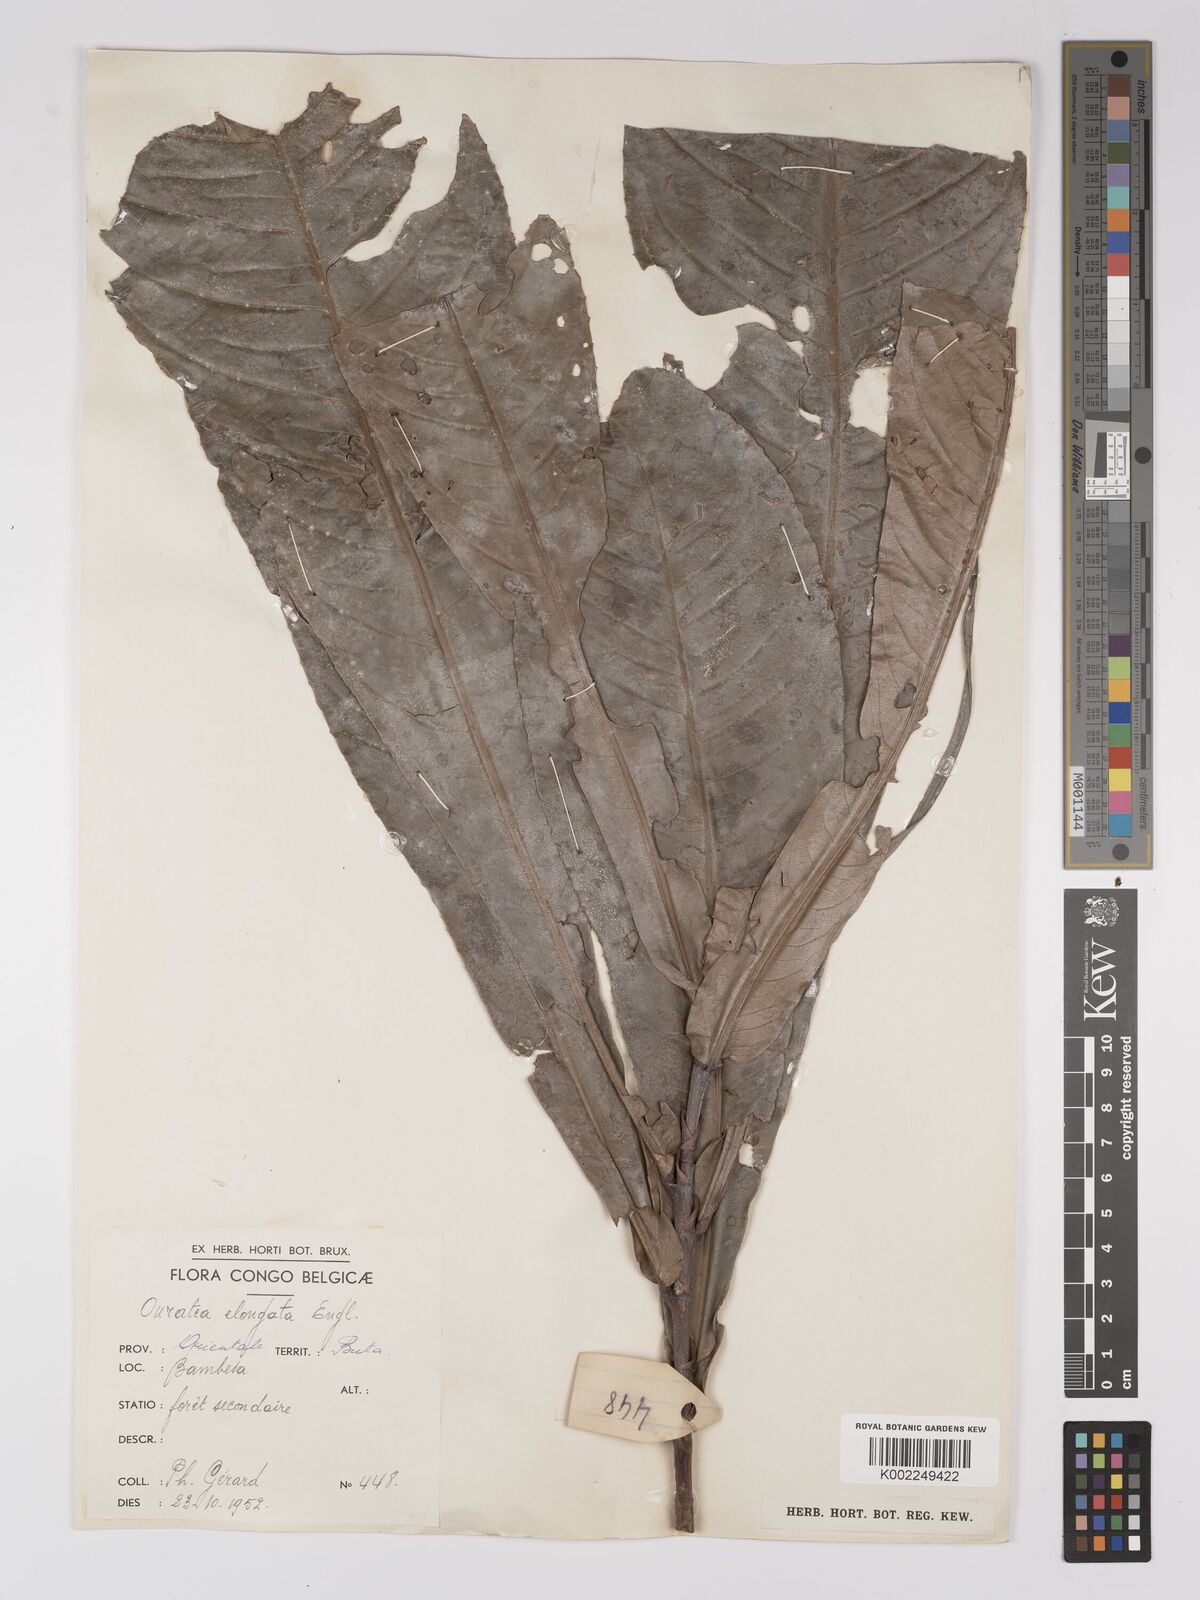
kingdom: Plantae
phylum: Tracheophyta
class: Magnoliopsida
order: Malpighiales
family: Ochnaceae
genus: Gomphia
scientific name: Gomphia elongata
